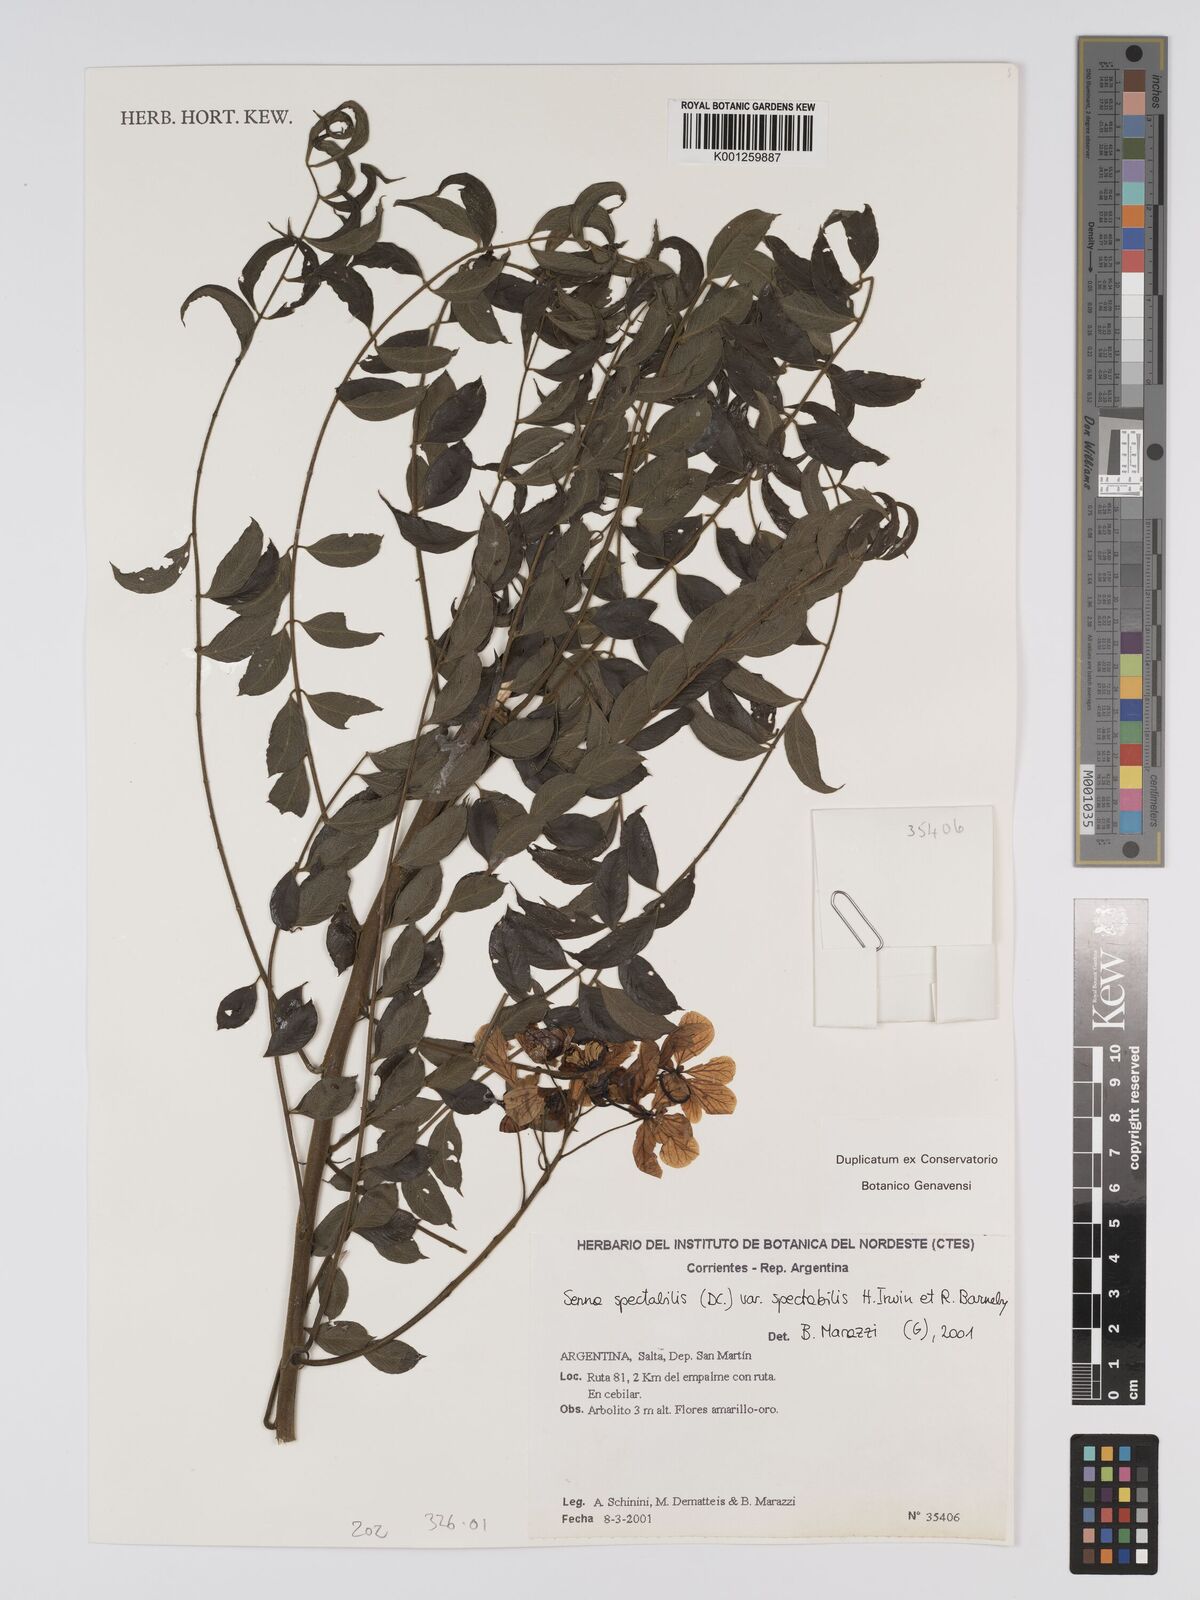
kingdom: Plantae
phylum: Tracheophyta
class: Magnoliopsida
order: Fabales
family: Fabaceae
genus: Senna
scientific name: Senna spectabilis
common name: Casia amarilla
